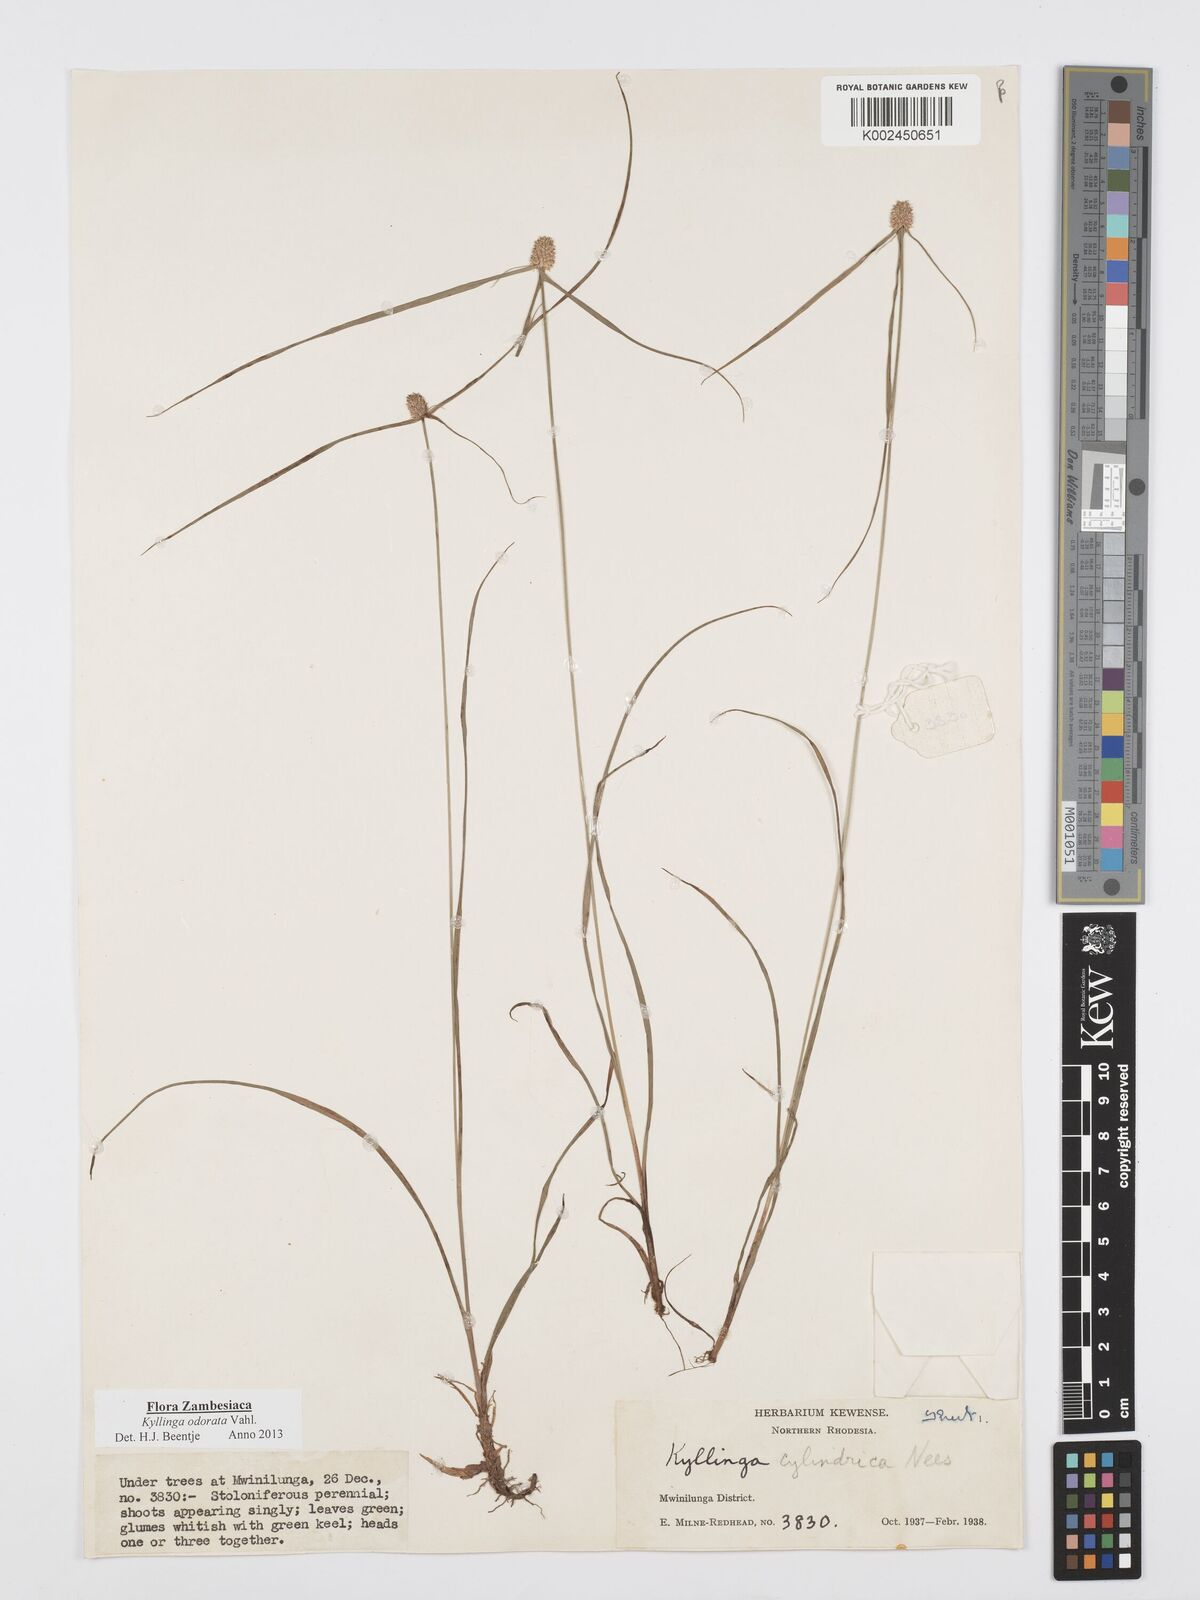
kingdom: Plantae
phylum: Tracheophyta
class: Liliopsida
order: Poales
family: Cyperaceae
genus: Cyperus
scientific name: Cyperus
